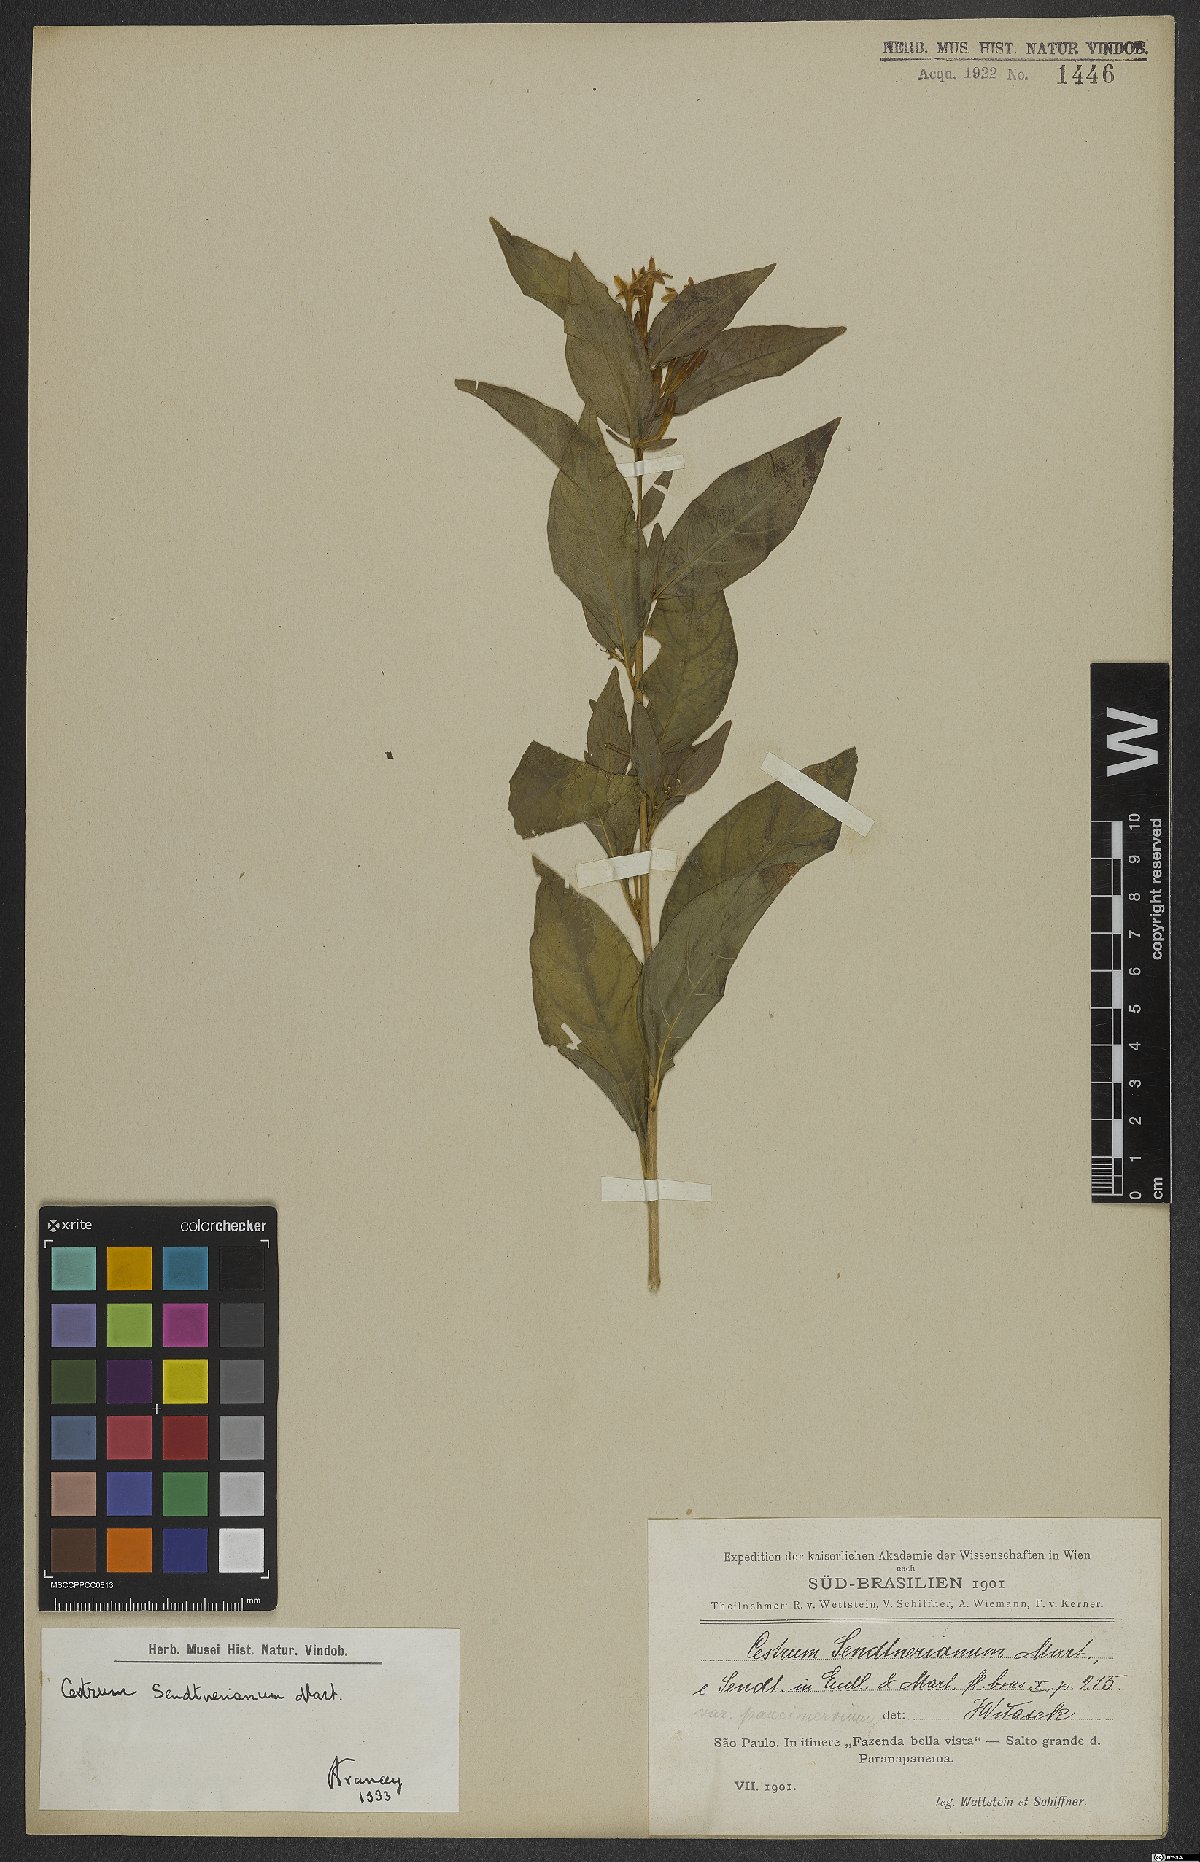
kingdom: Plantae
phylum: Tracheophyta
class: Magnoliopsida
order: Solanales
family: Solanaceae
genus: Cestrum
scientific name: Cestrum mariquitense
